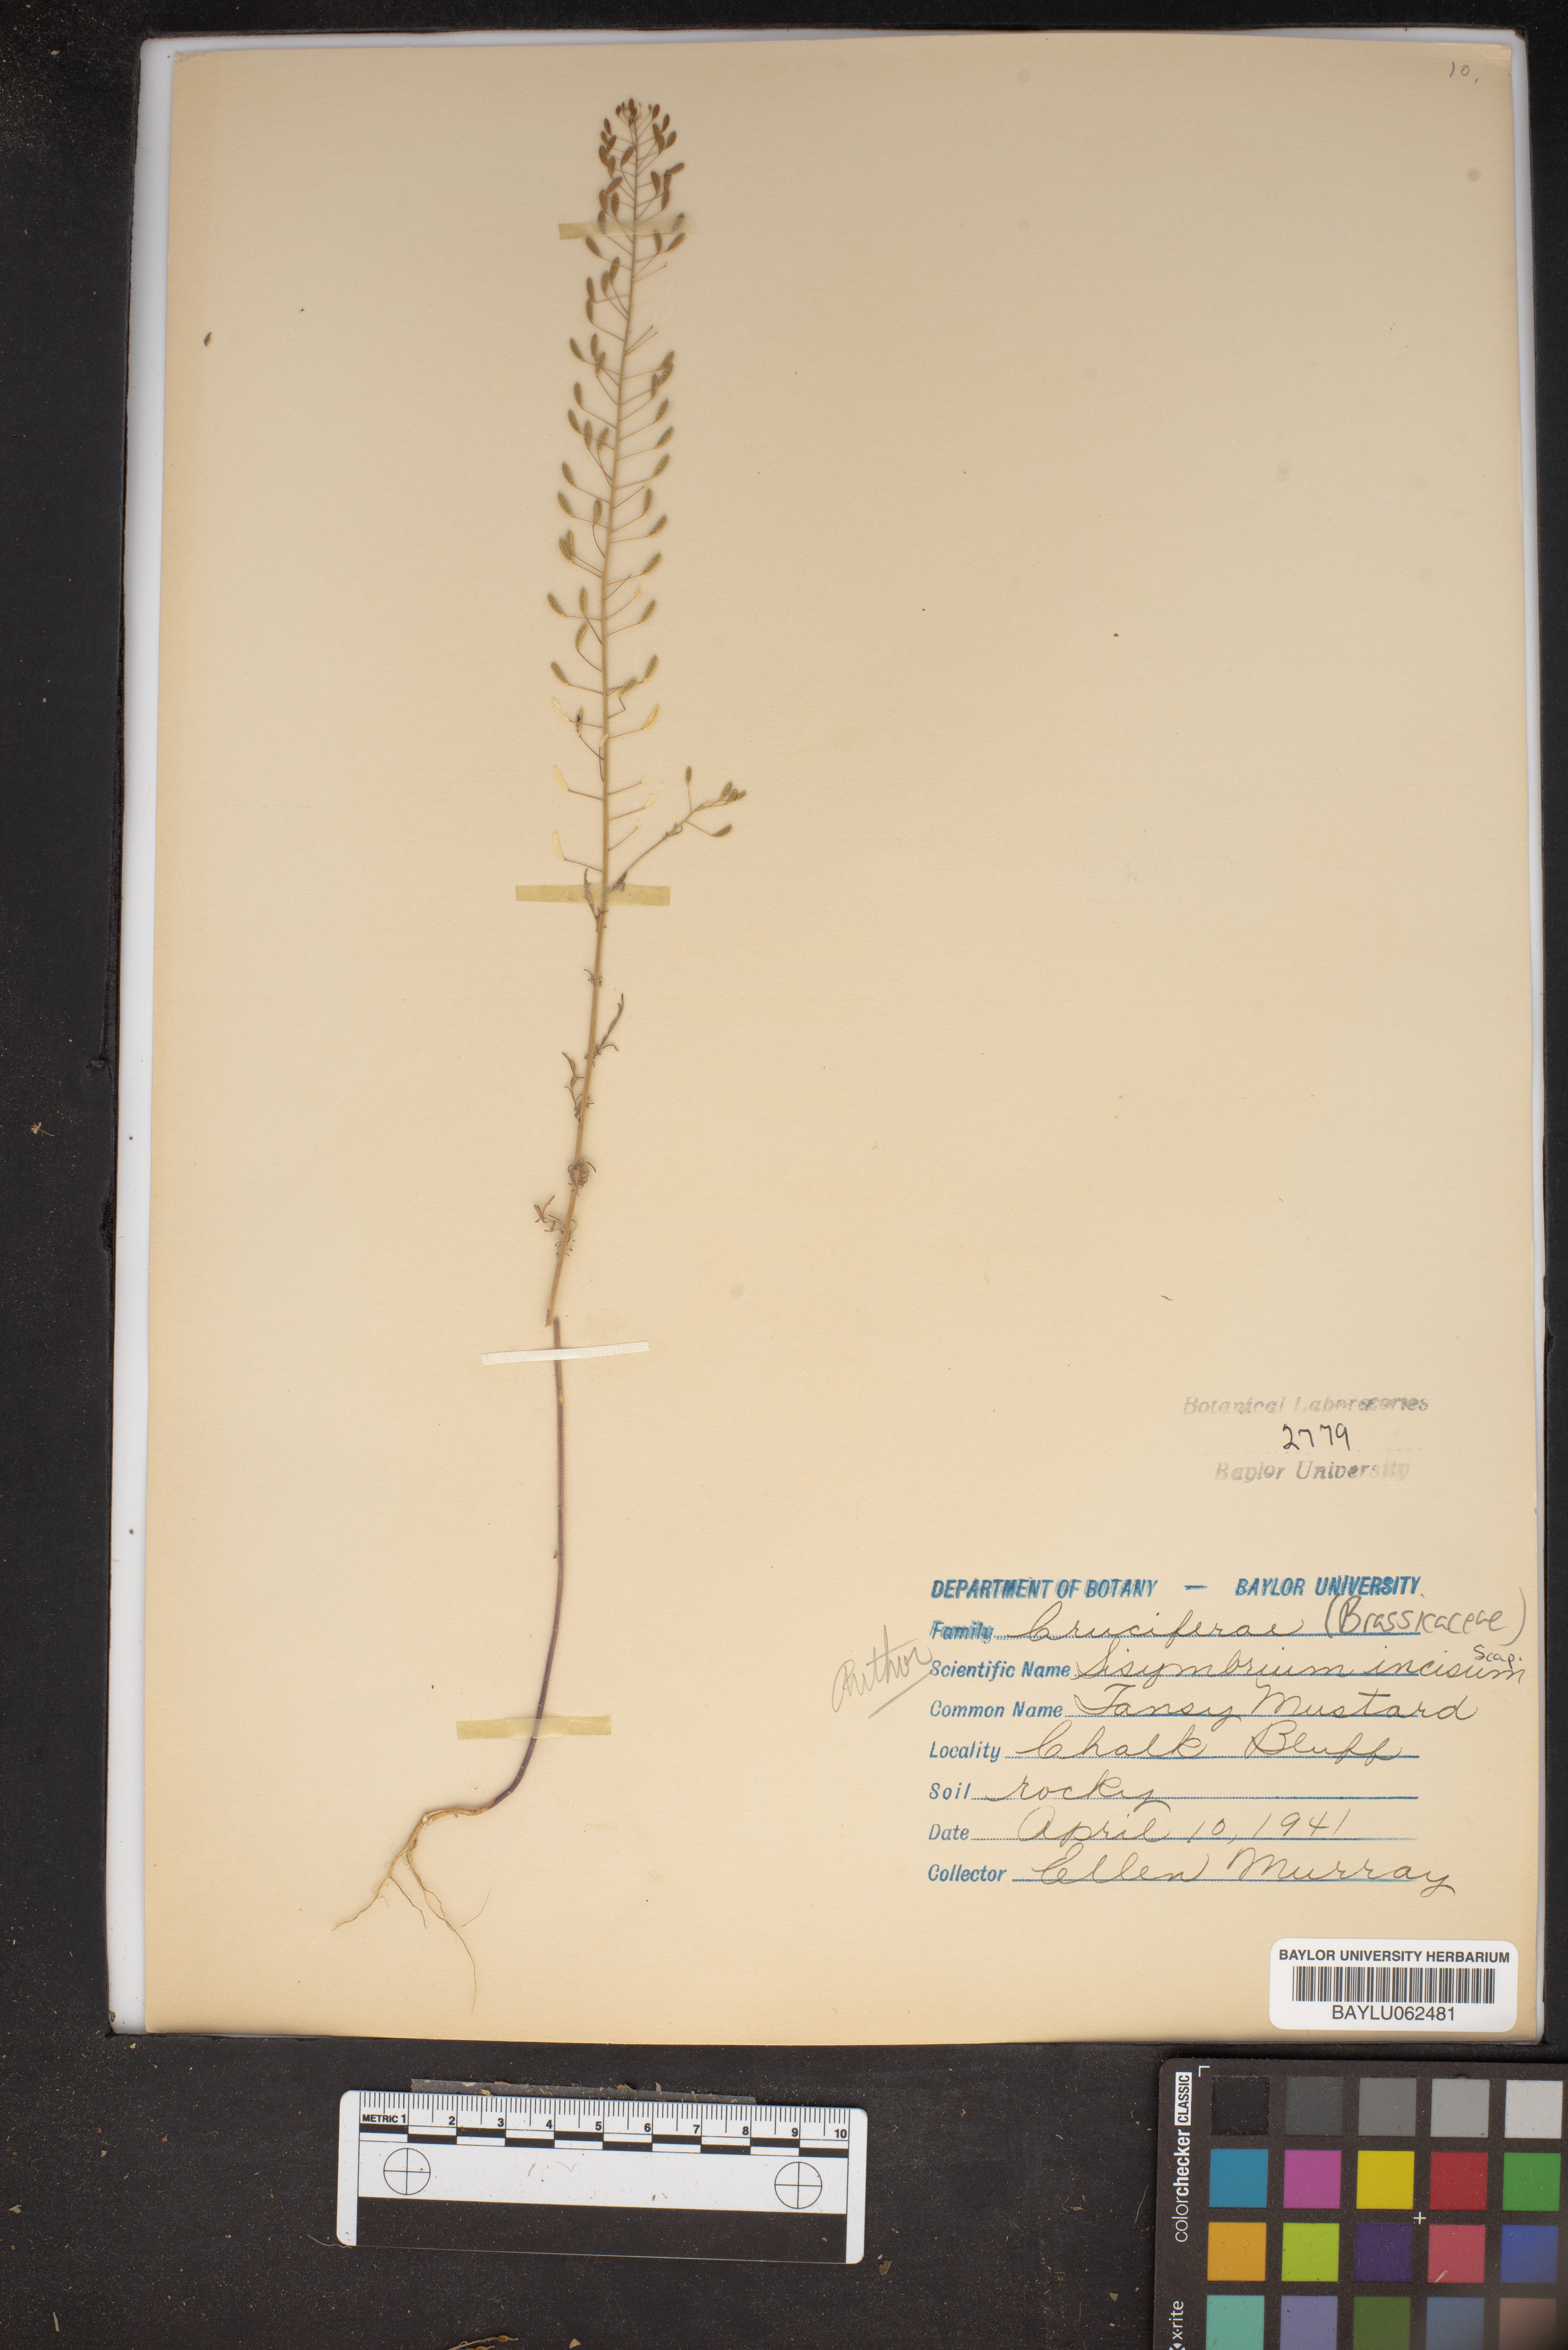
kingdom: Plantae
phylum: Tracheophyta
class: Magnoliopsida
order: Brassicales
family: Brassicaceae
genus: Descurainia
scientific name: Descurainia incisa
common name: Cut-leaved tansy mustard
